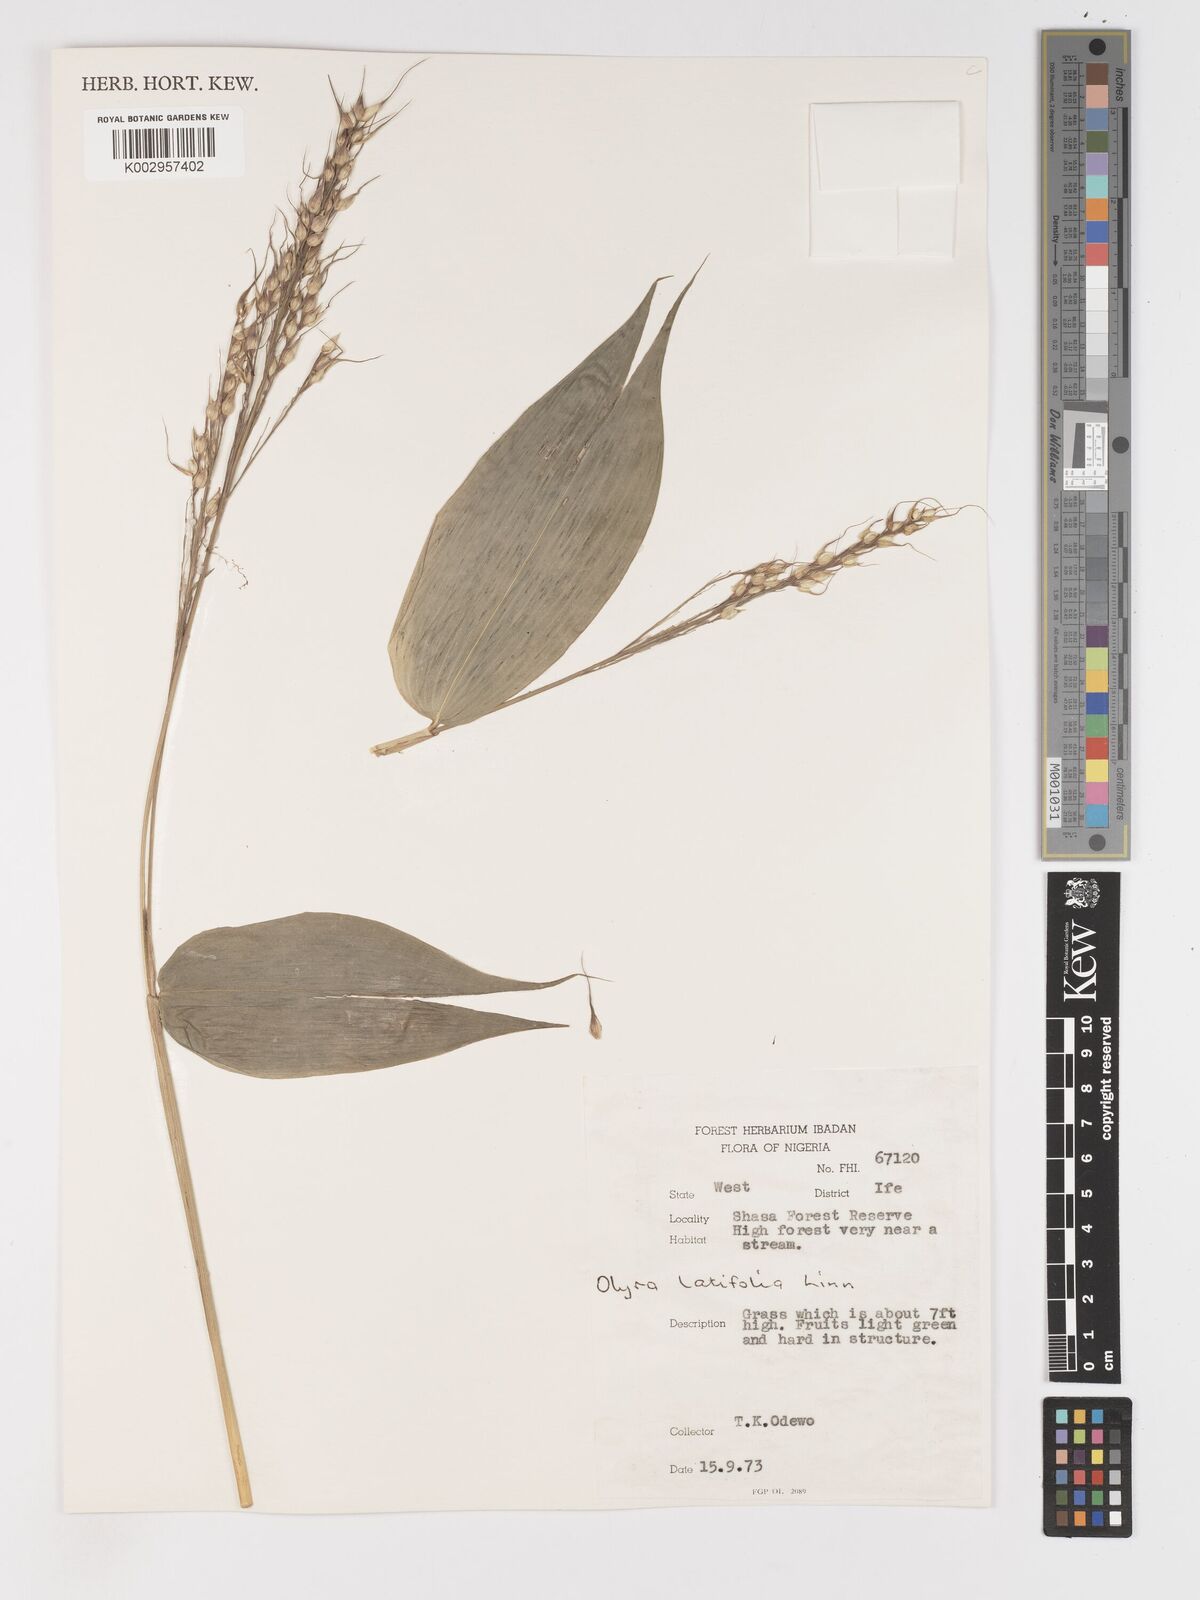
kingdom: Plantae
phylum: Tracheophyta
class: Liliopsida
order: Poales
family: Poaceae
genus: Olyra
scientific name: Olyra latifolia
